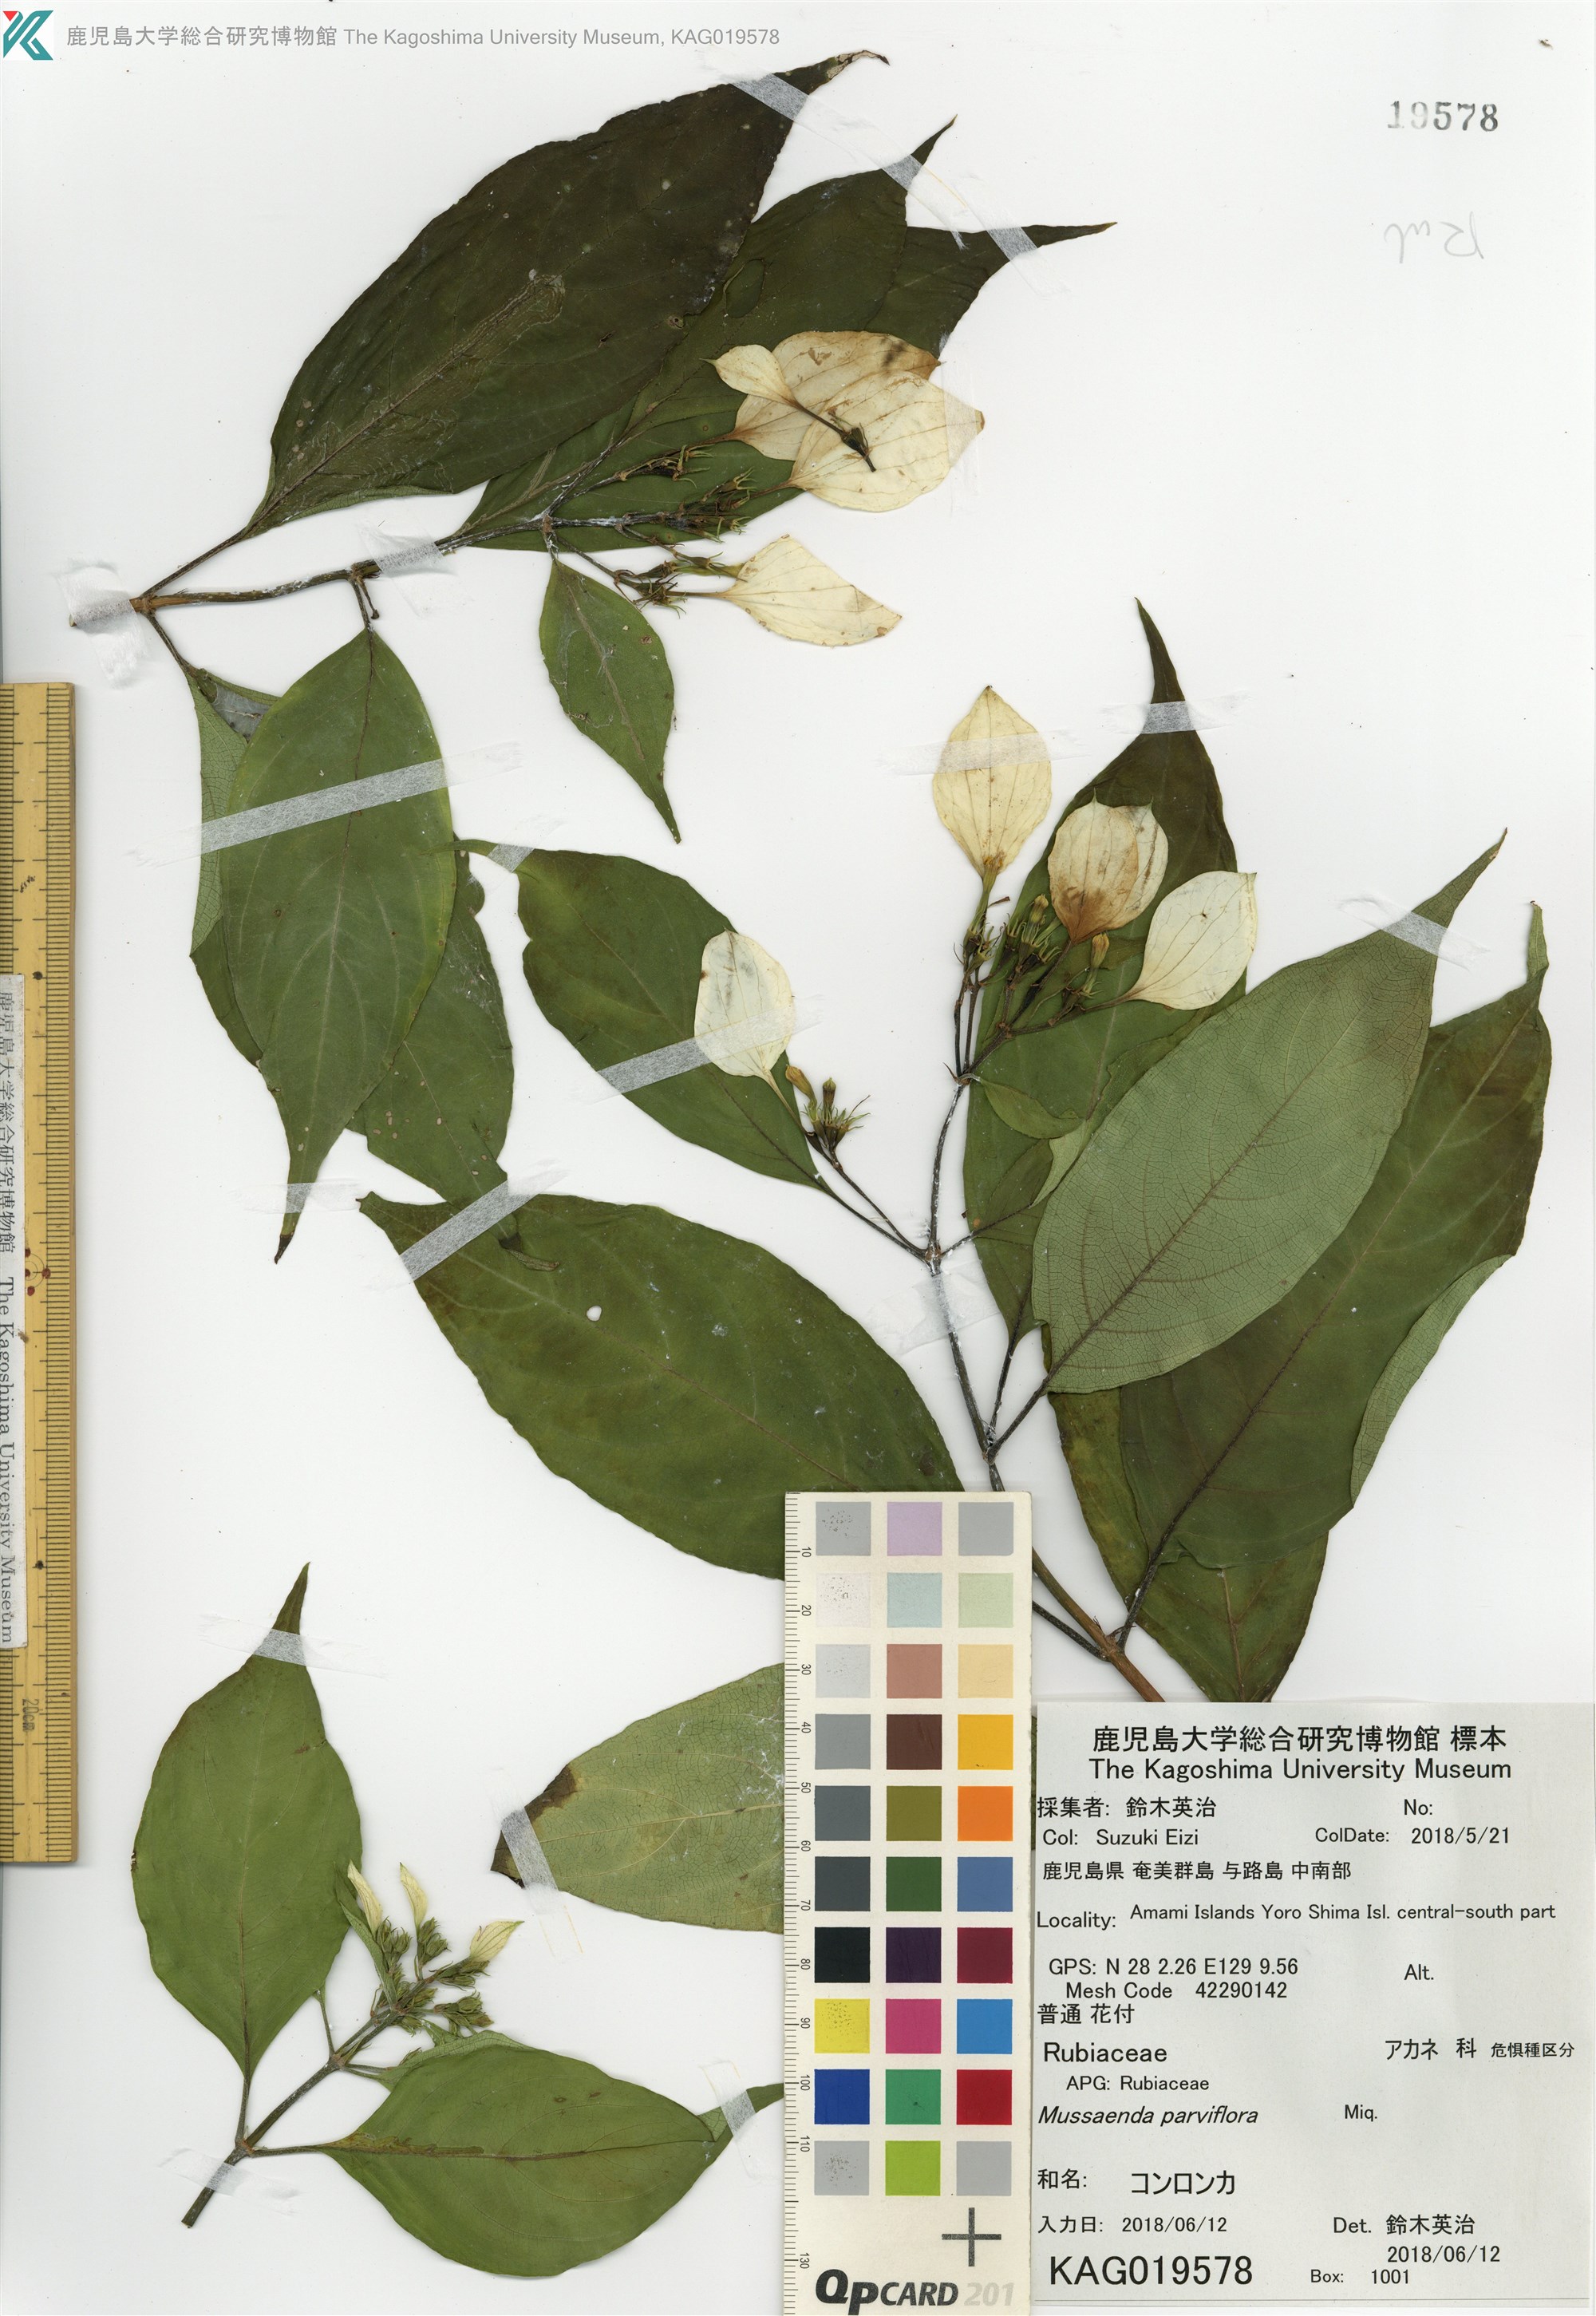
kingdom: Plantae
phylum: Tracheophyta
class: Magnoliopsida
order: Gentianales
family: Rubiaceae
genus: Mussaenda
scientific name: Mussaenda parviflora
